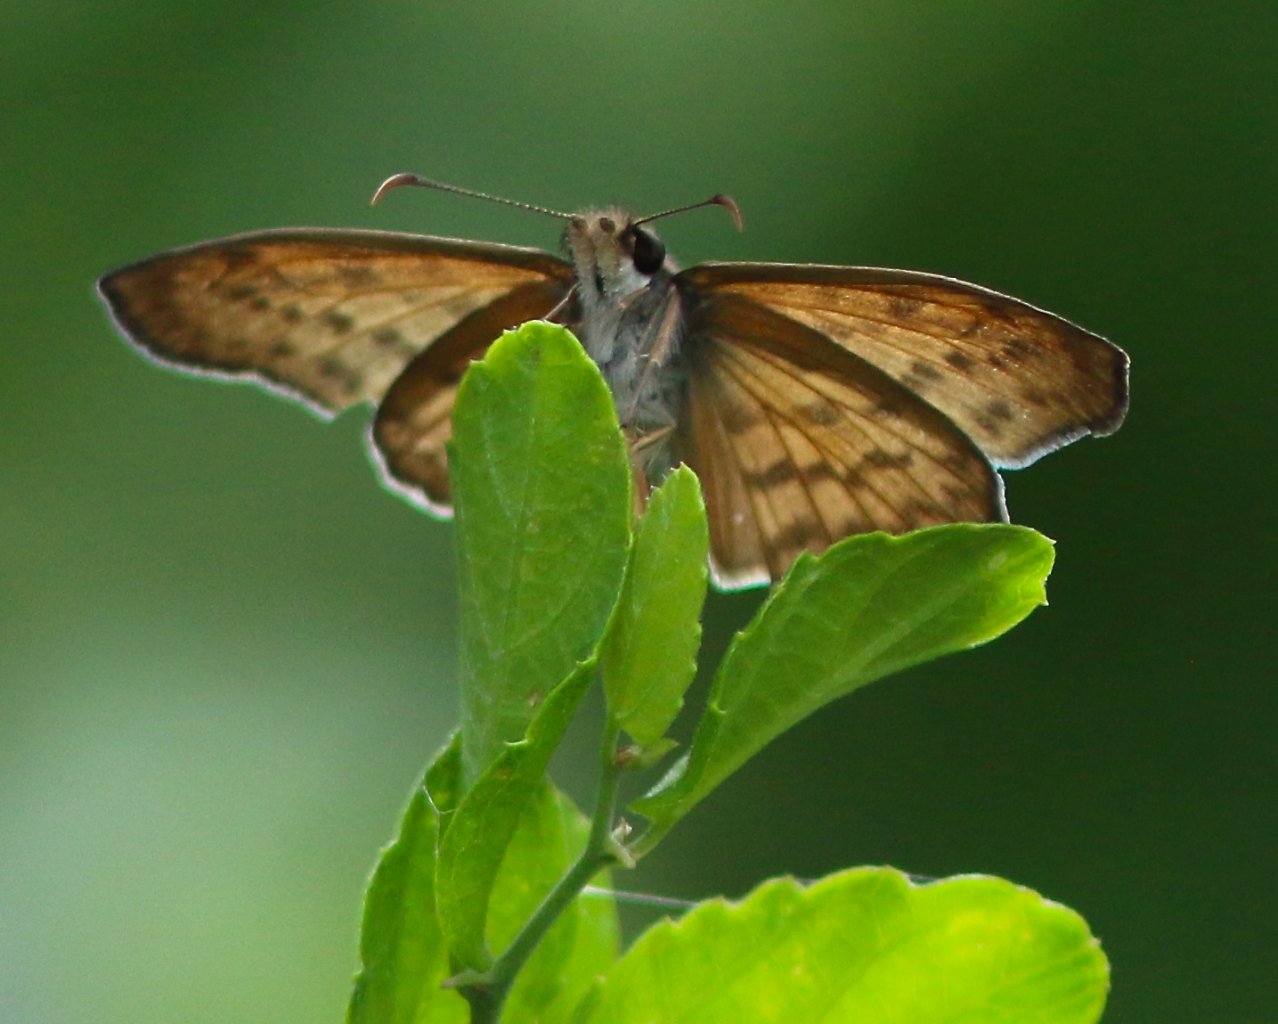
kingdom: Animalia
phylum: Arthropoda
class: Insecta
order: Lepidoptera
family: Hesperiidae
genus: Timochares
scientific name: Timochares ruptifasciata
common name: Brown-banded Skipper
